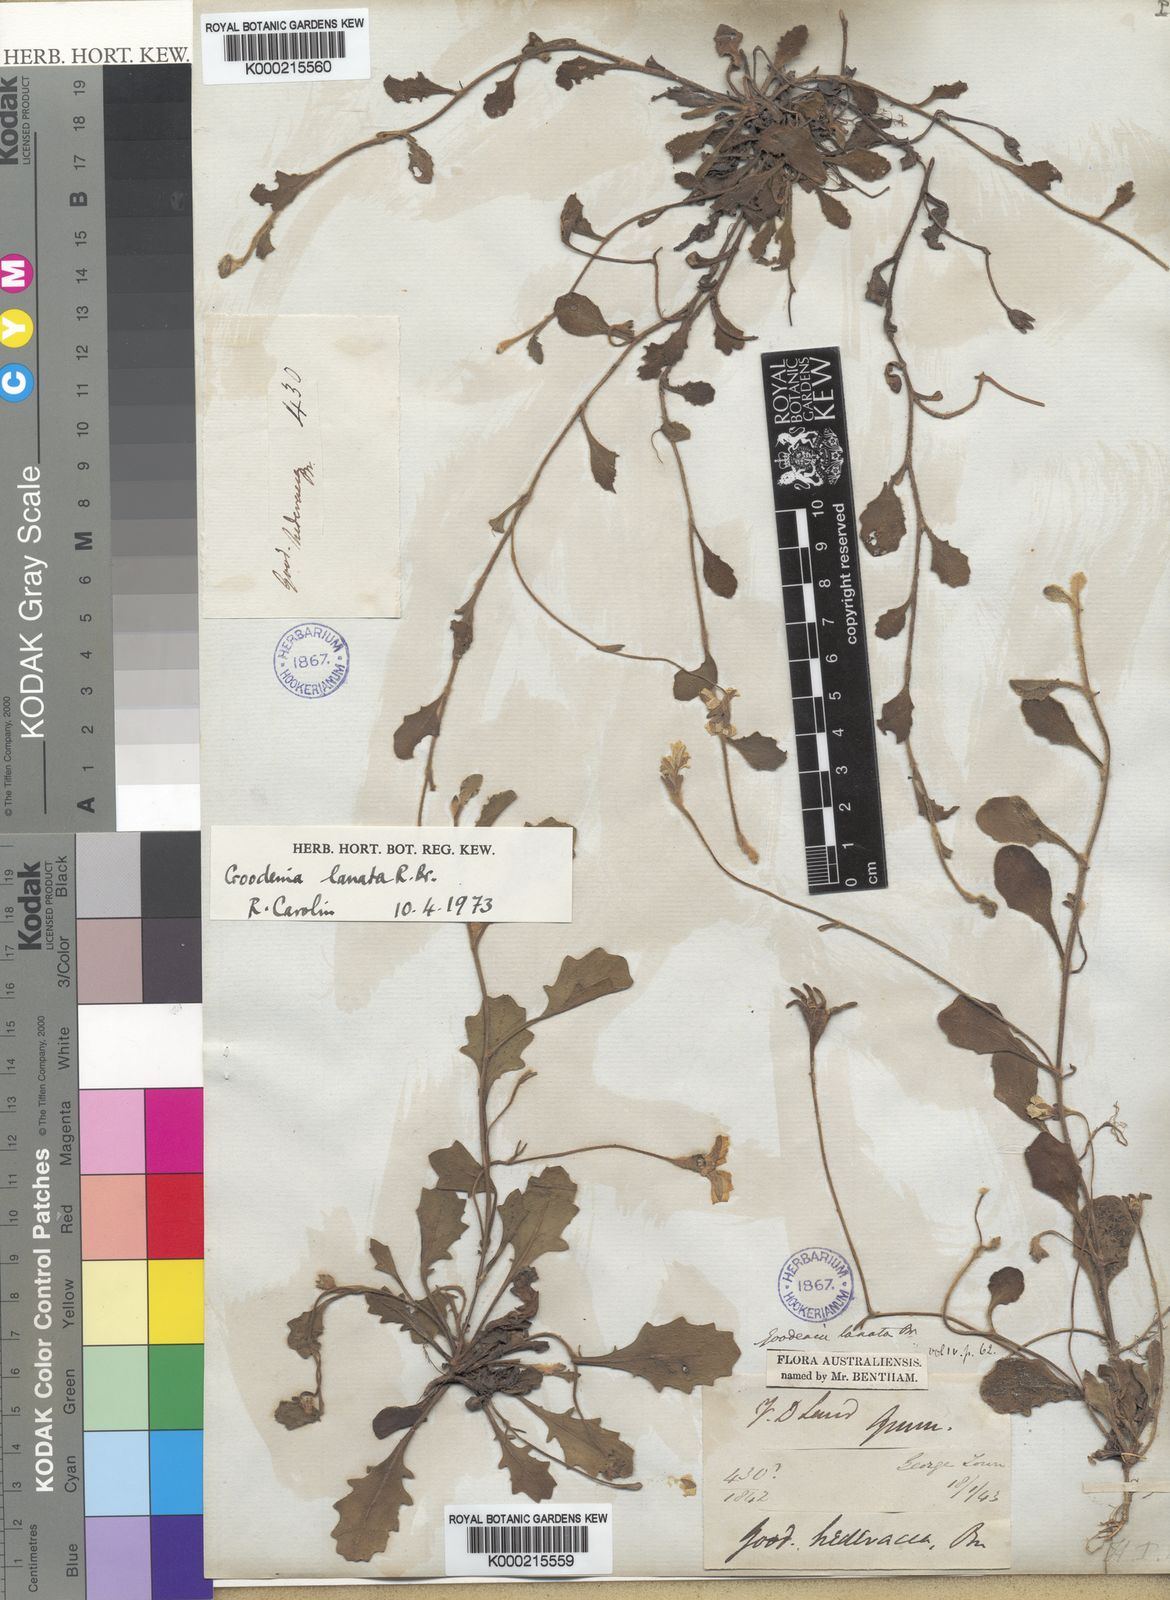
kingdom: Plantae
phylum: Tracheophyta
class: Magnoliopsida
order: Asterales
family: Goodeniaceae
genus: Goodenia
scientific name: Goodenia lanata
